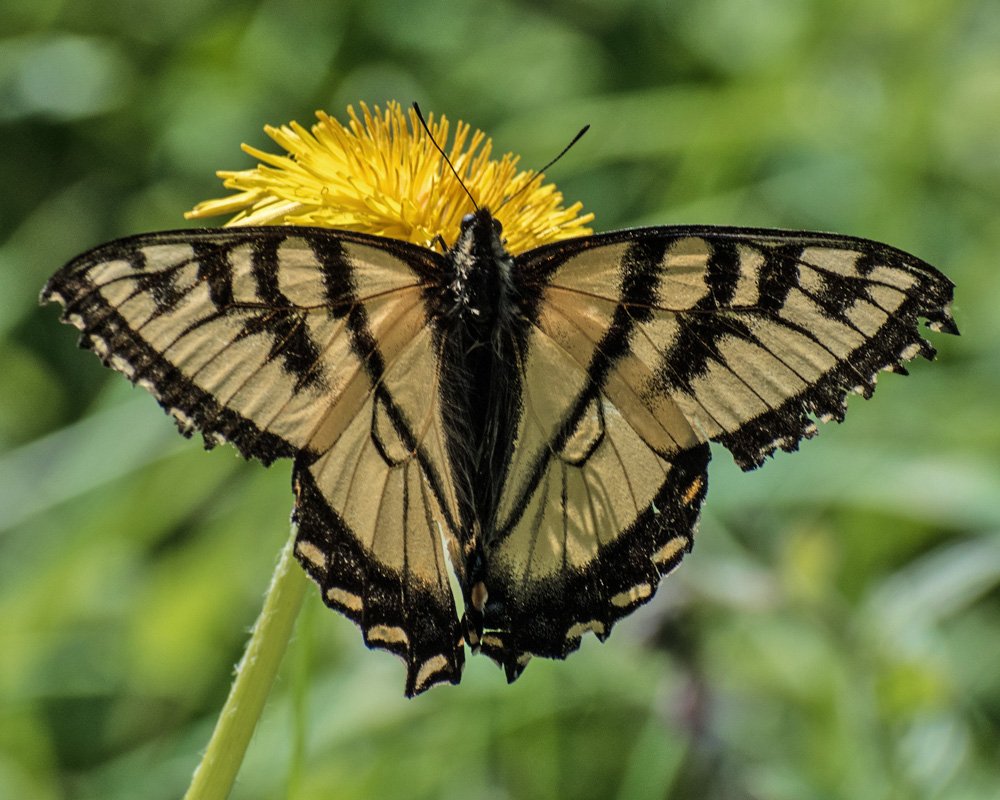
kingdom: Animalia
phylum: Arthropoda
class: Insecta
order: Lepidoptera
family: Papilionidae
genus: Pterourus
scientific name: Pterourus canadensis
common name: Canadian Tiger Swallowtail
